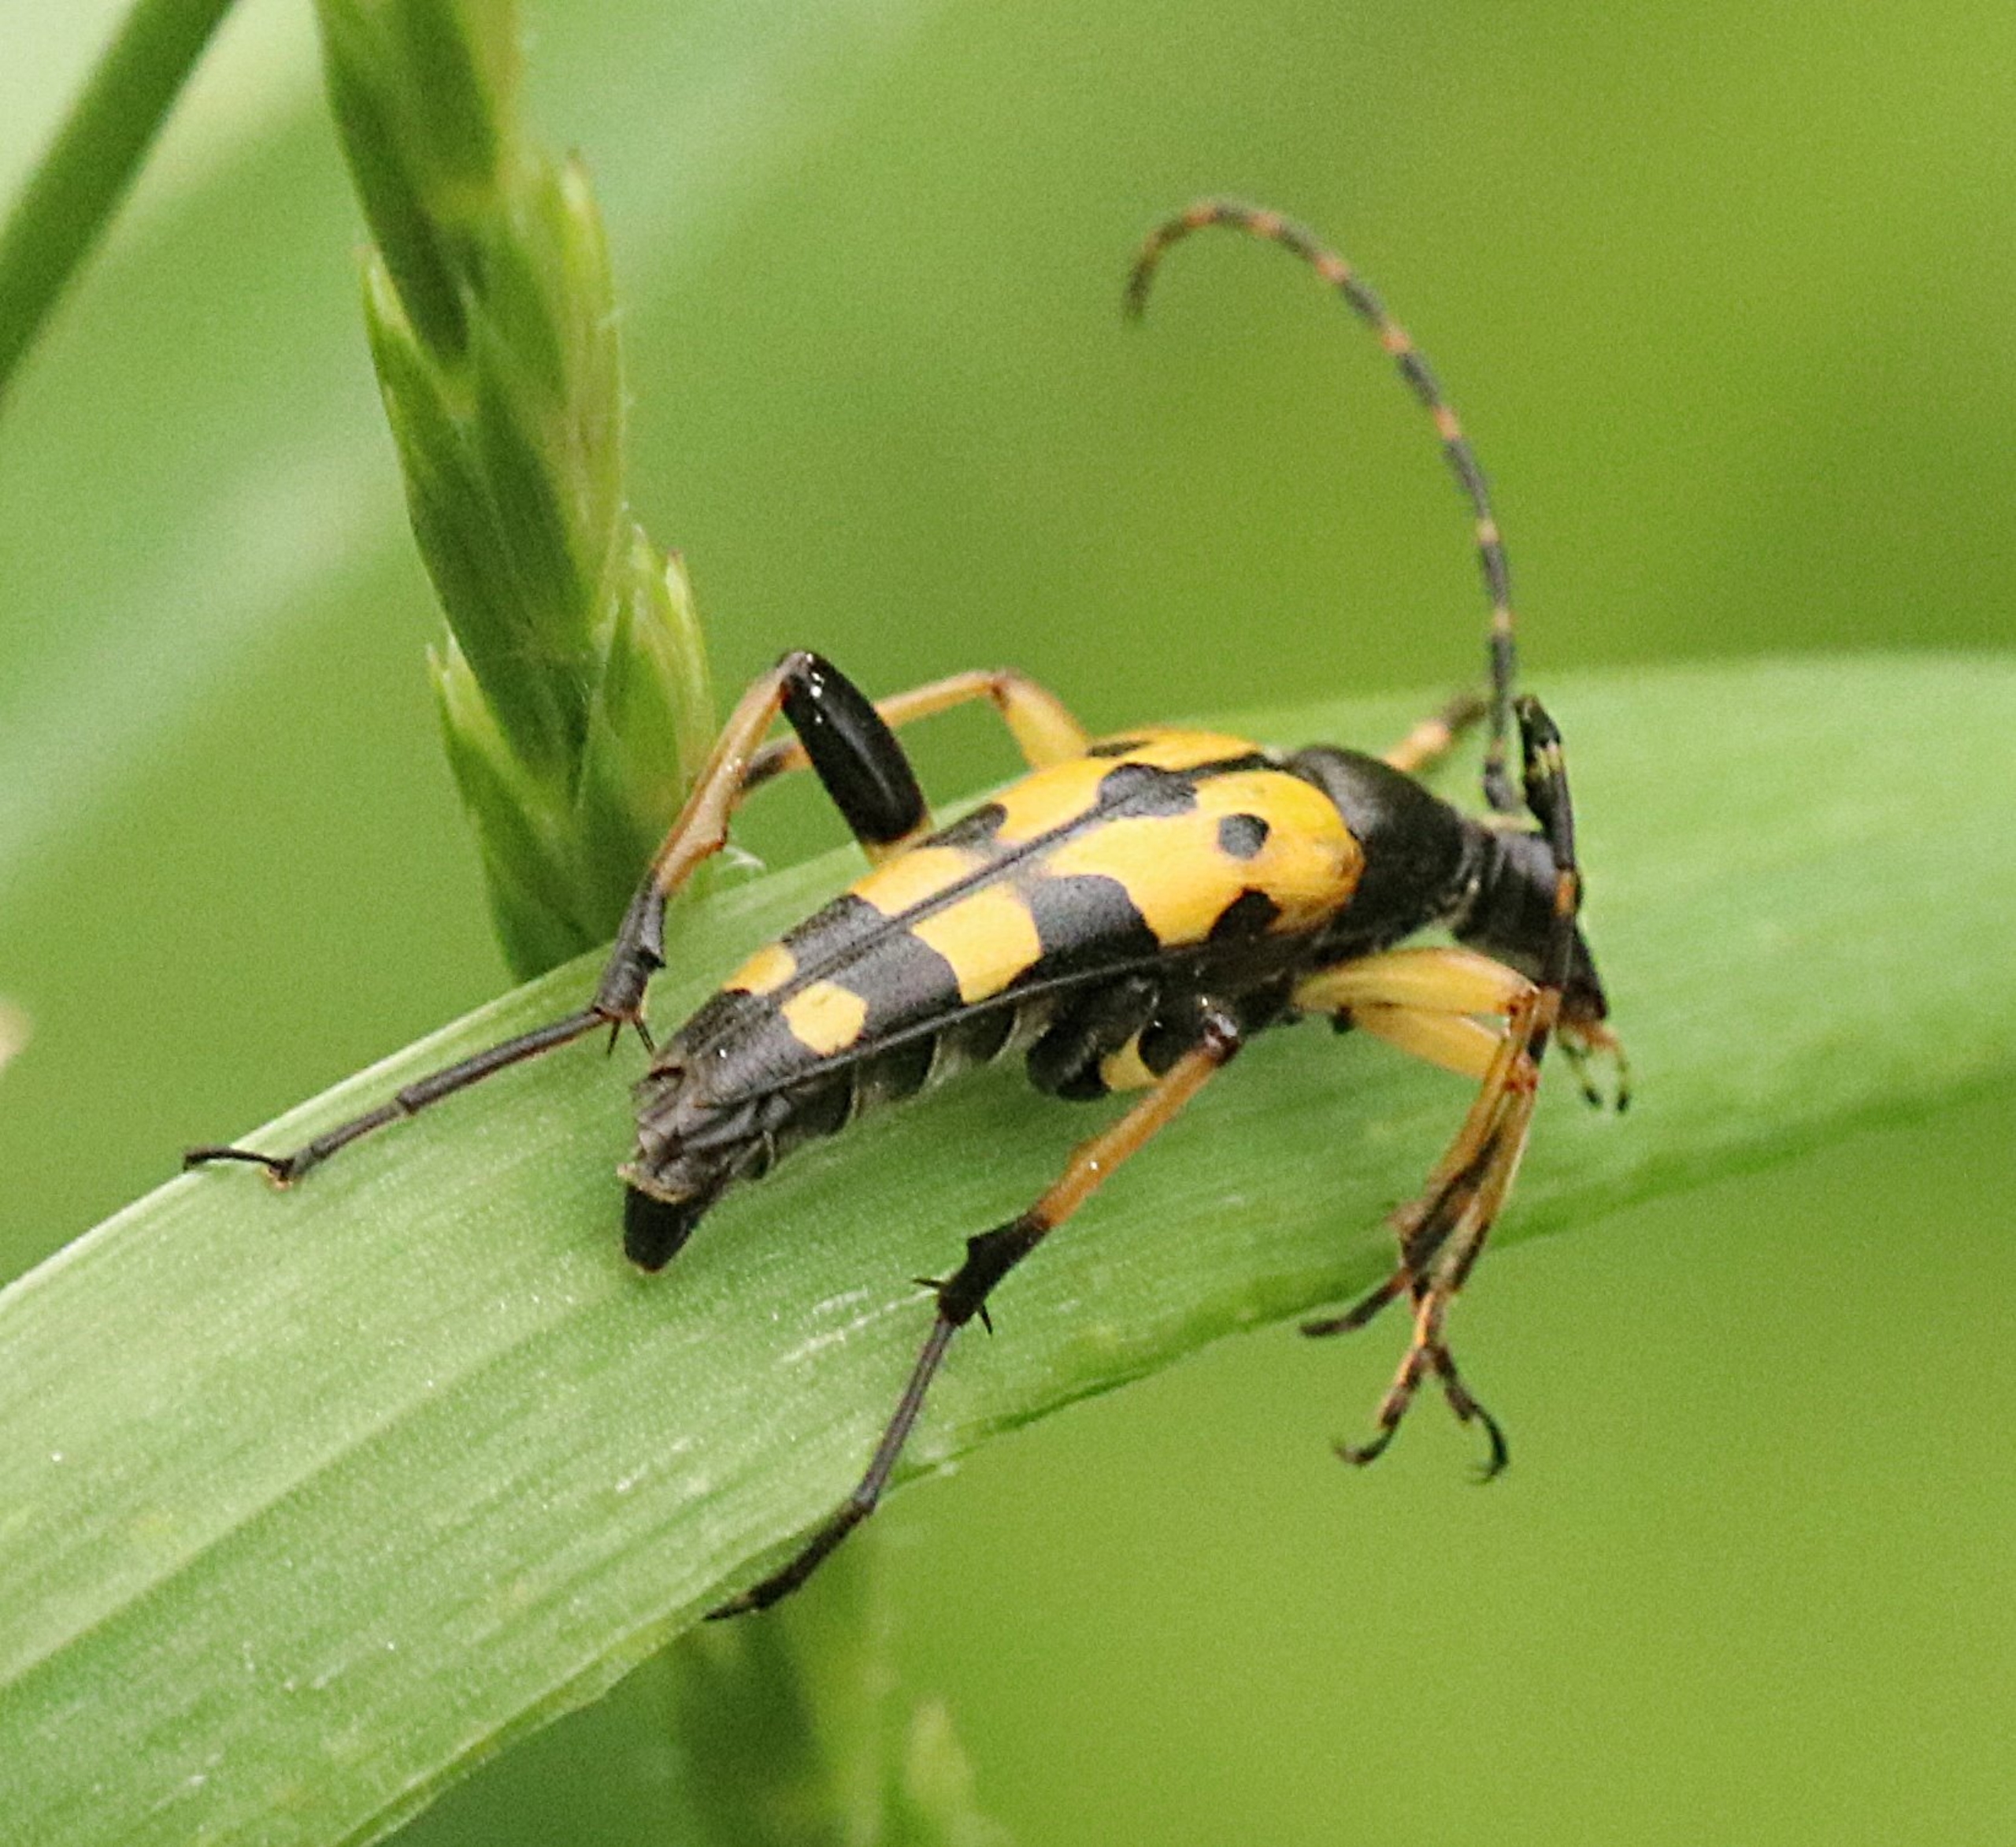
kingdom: Animalia
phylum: Arthropoda
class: Insecta
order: Coleoptera
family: Cerambycidae
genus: Rutpela
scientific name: Rutpela maculata
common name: Sydlig blomsterbuk
